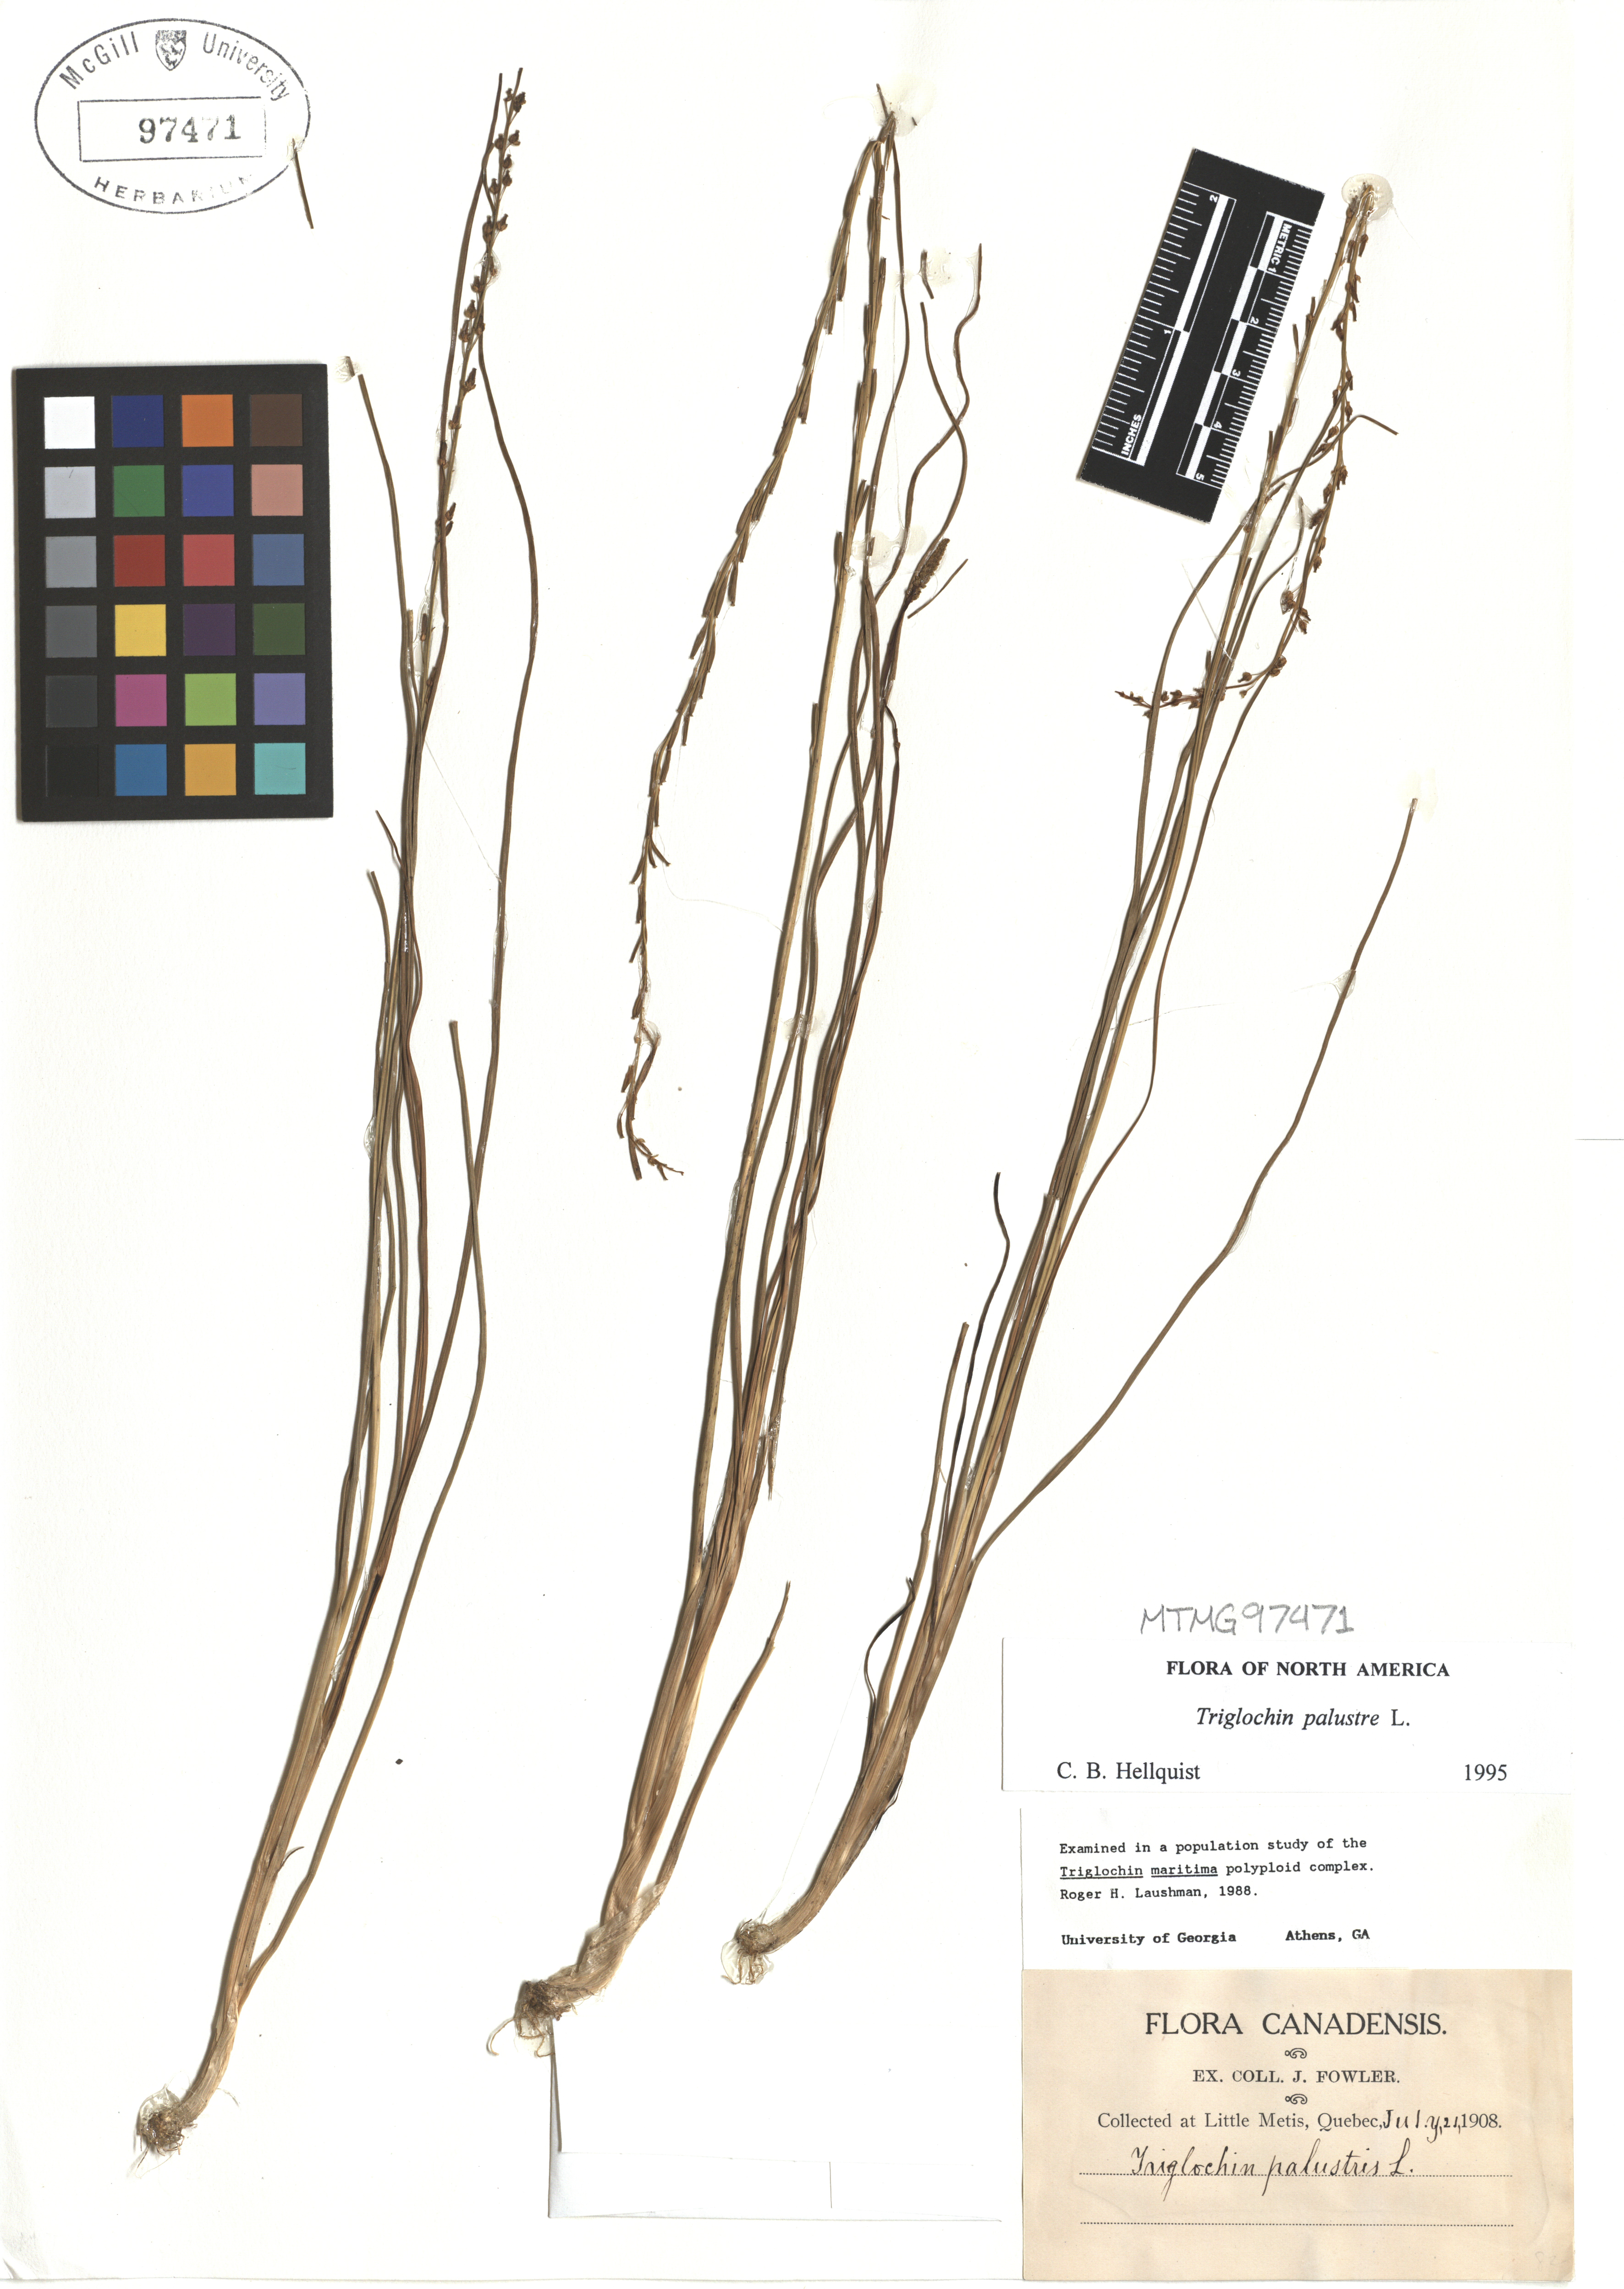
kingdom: Plantae
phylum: Tracheophyta
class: Liliopsida
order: Alismatales
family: Juncaginaceae
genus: Triglochin
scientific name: Triglochin palustris
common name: Marsh arrowgrass
